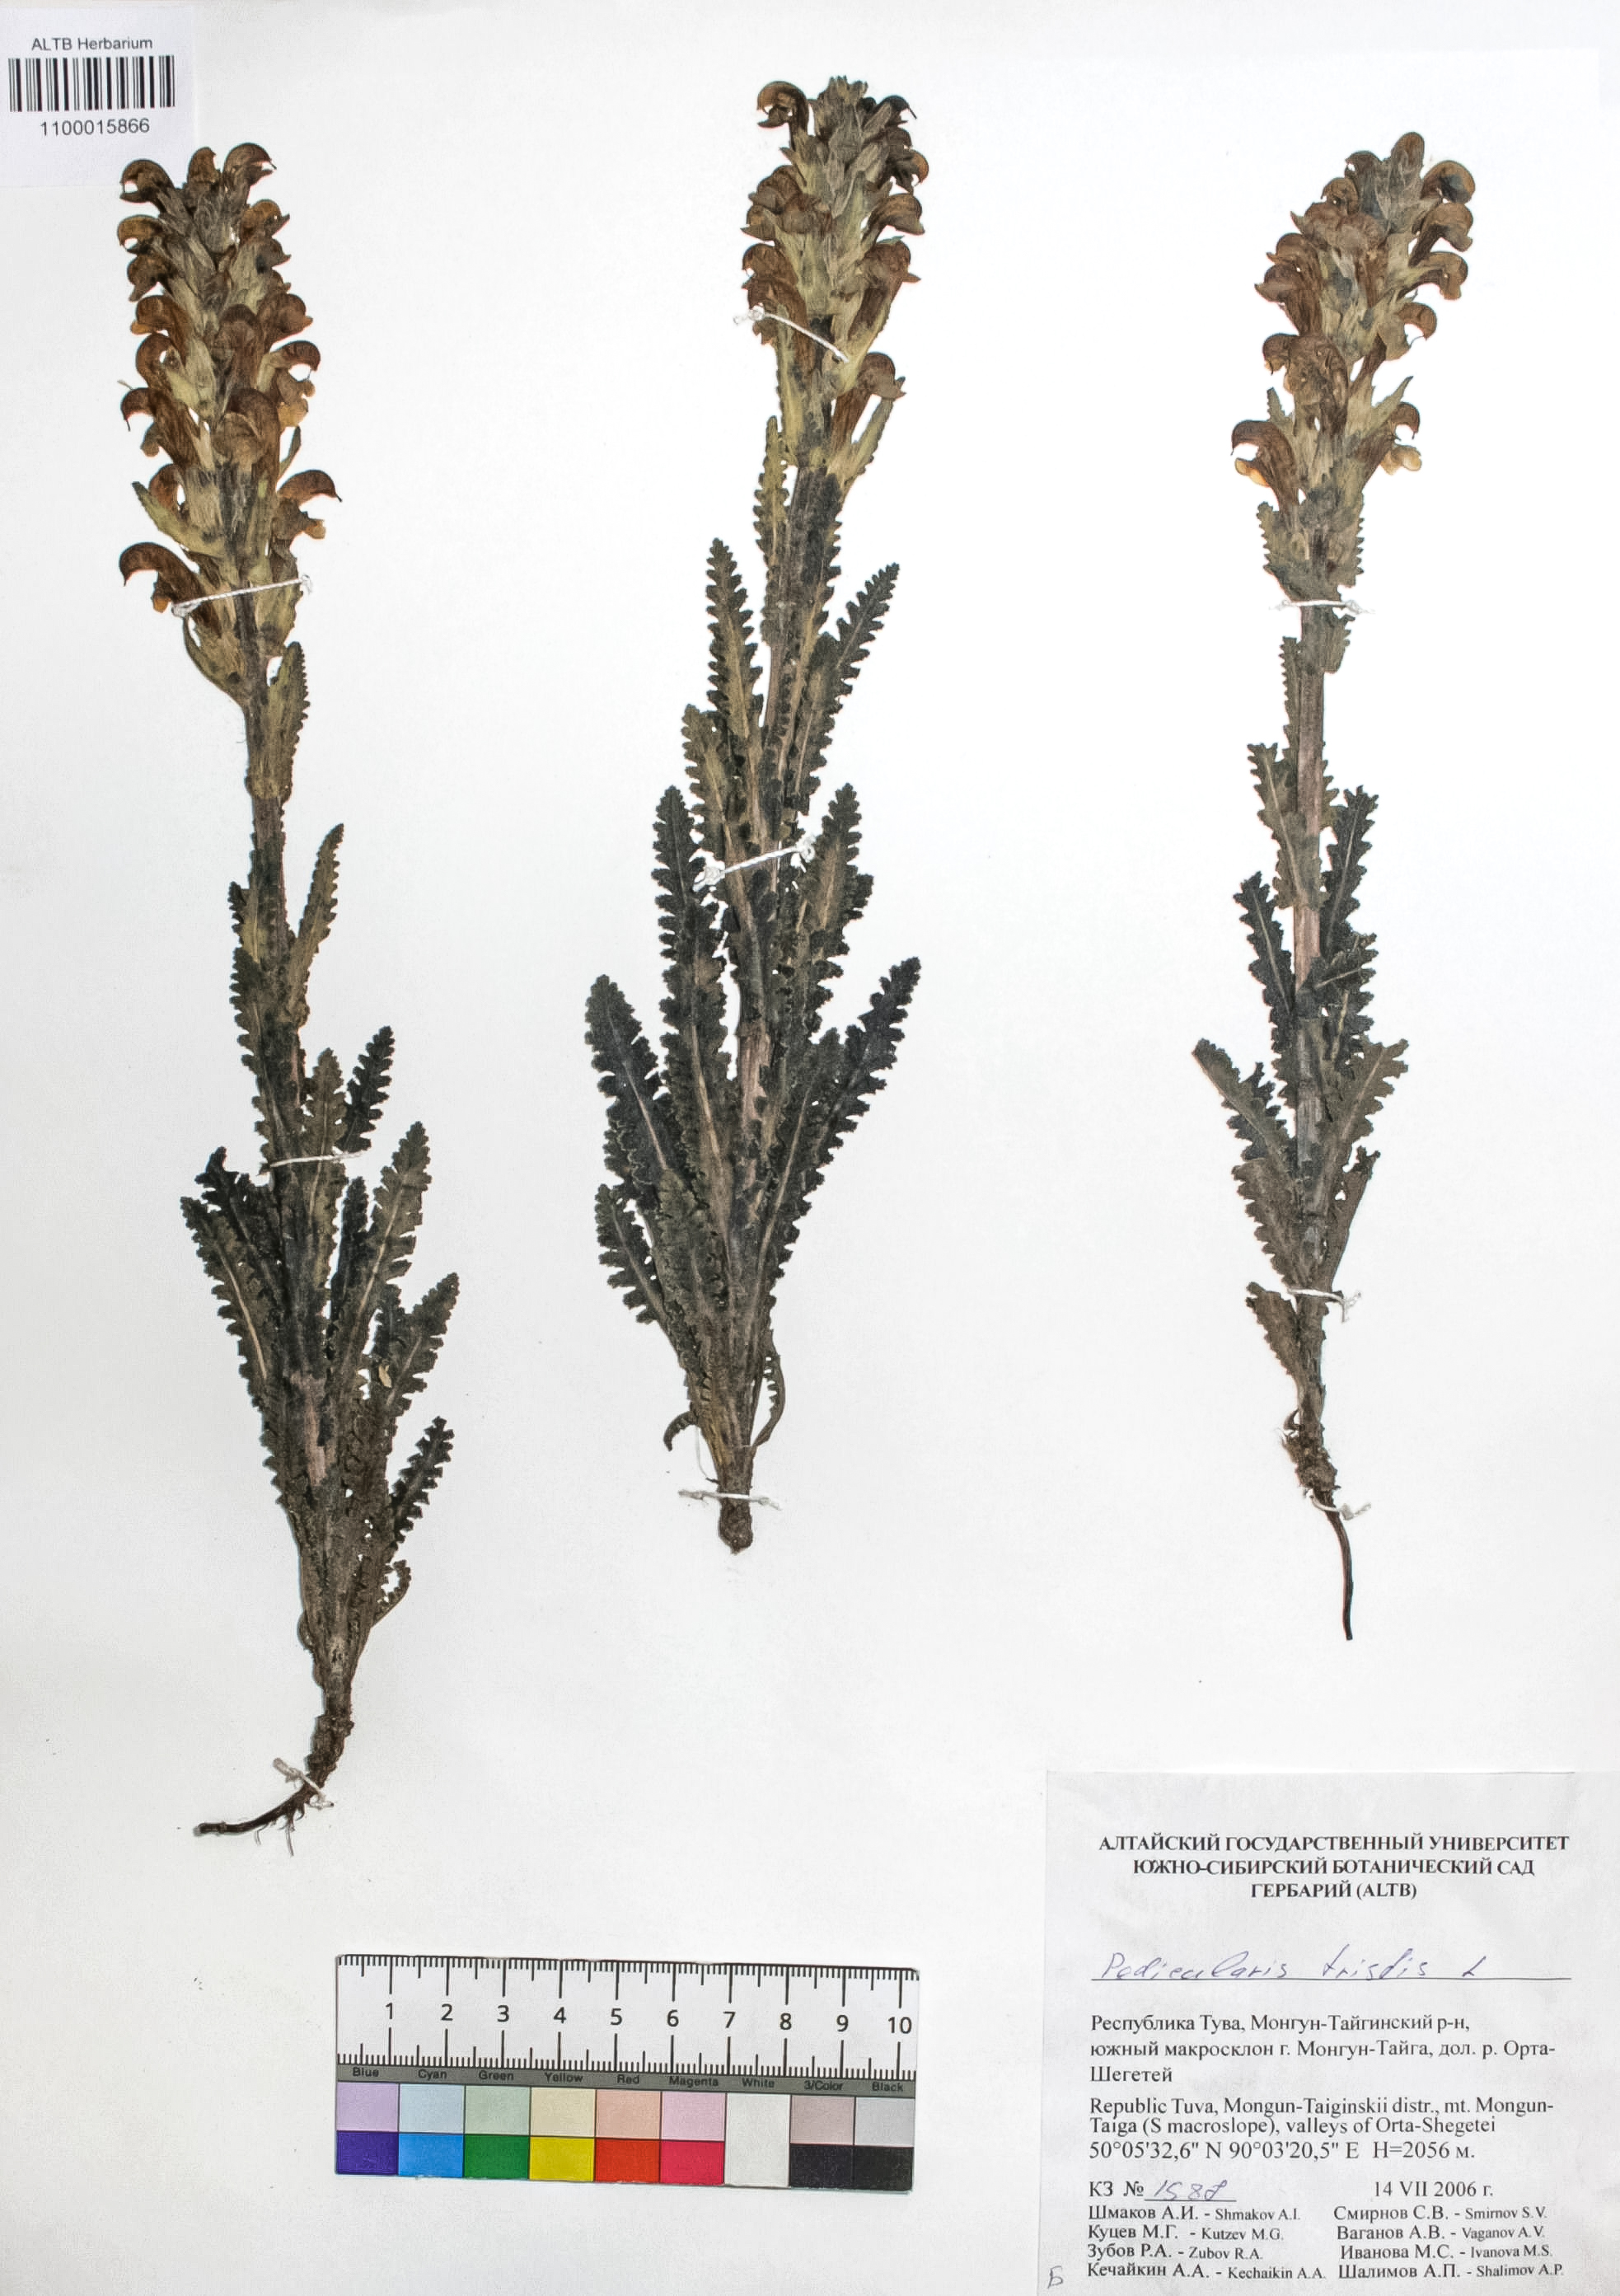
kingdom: Plantae
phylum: Tracheophyta
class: Magnoliopsida
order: Lamiales
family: Orobanchaceae
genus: Pedicularis
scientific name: Pedicularis tristis
